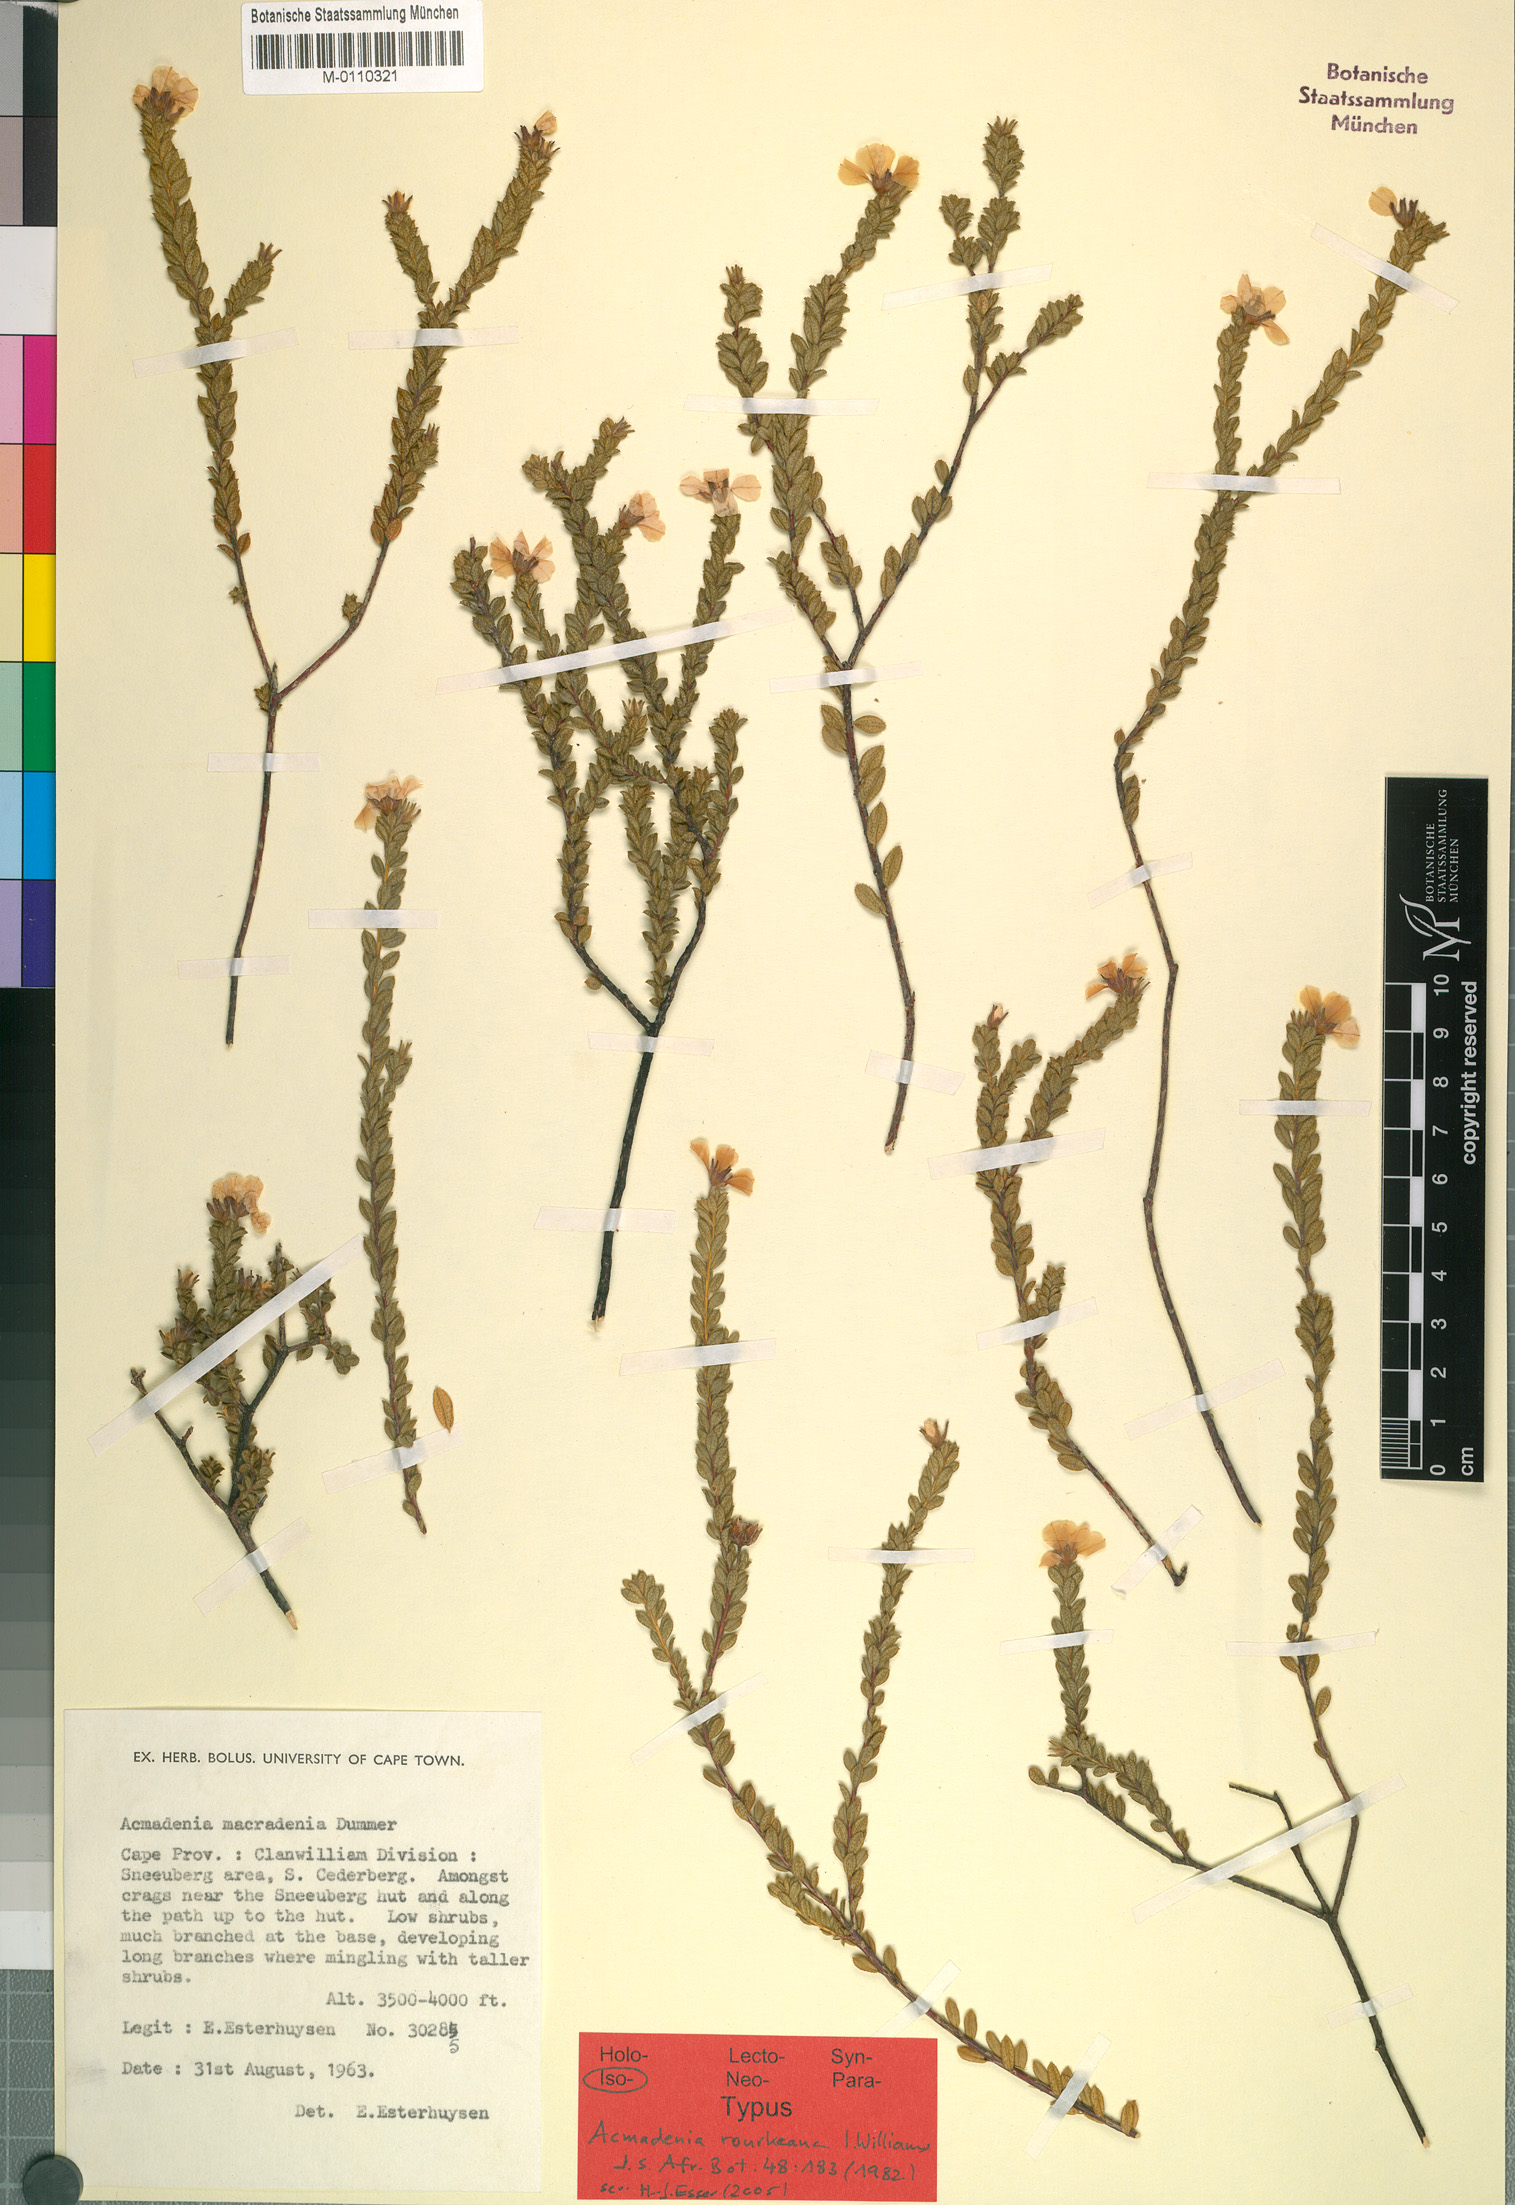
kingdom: Plantae
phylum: Tracheophyta
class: Magnoliopsida
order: Sapindales
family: Rutaceae
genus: Acmadenia
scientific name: Acmadenia rourkeana
